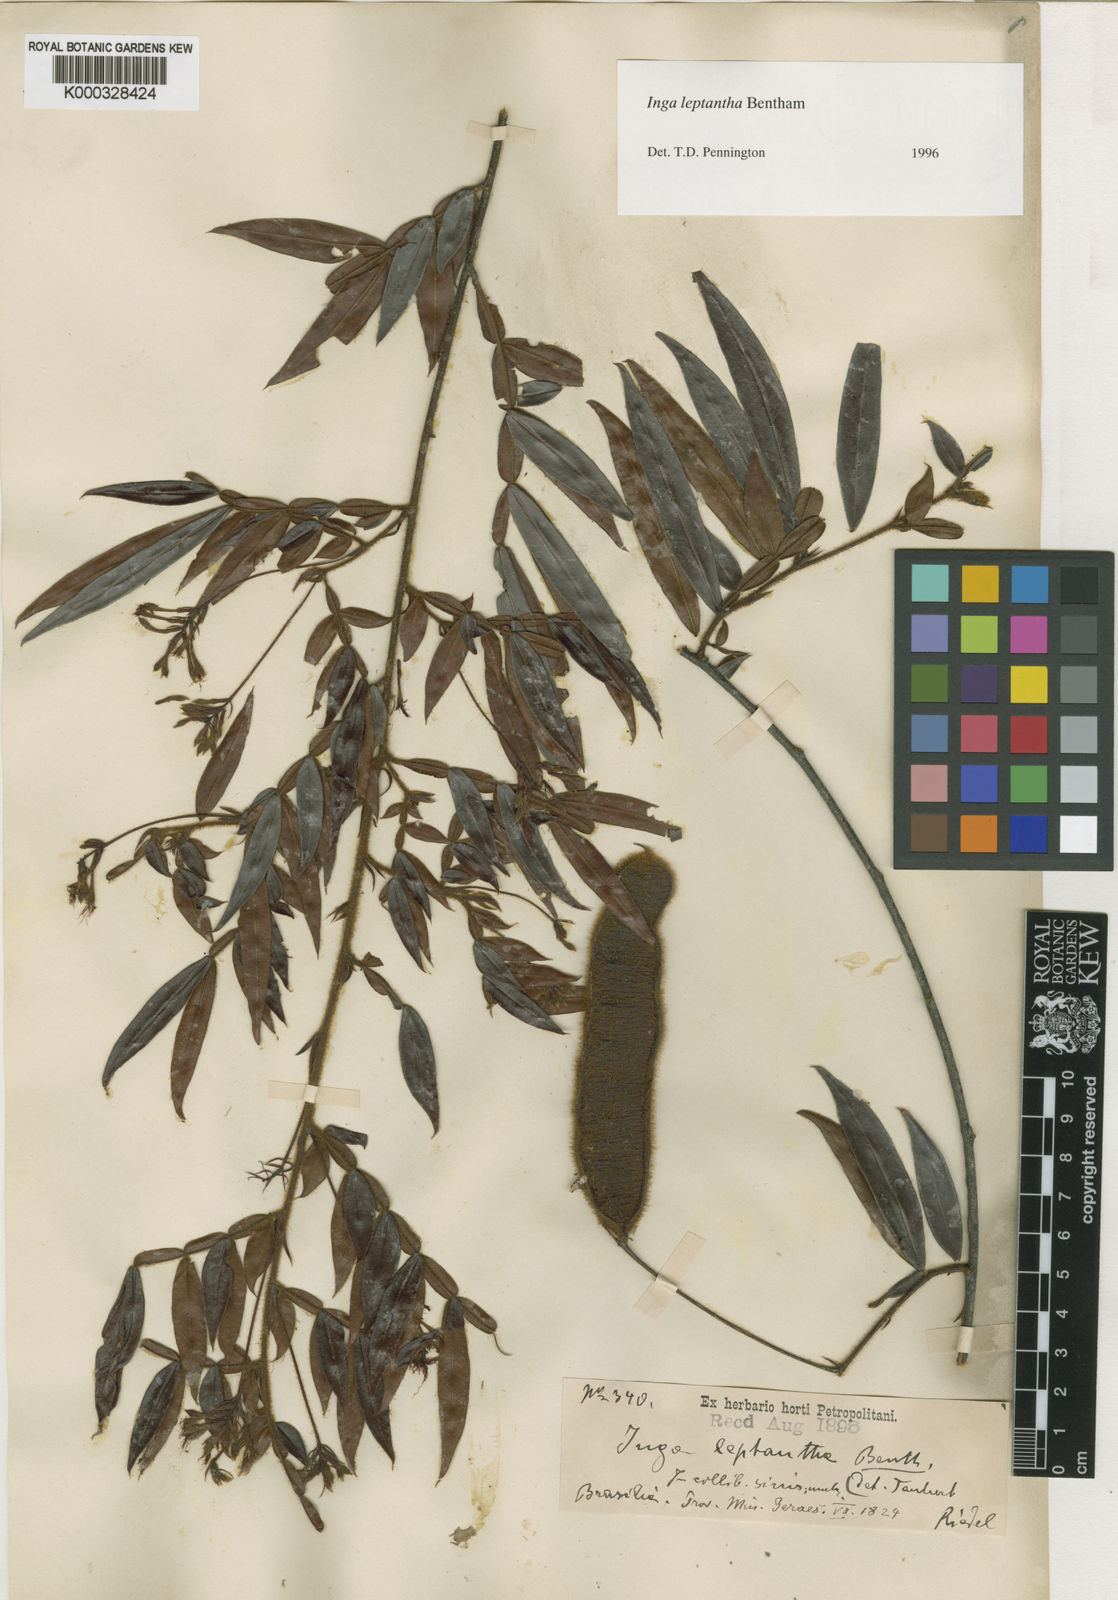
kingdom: Plantae
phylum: Tracheophyta
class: Magnoliopsida
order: Fabales
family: Fabaceae
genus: Inga
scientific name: Inga leptantha
